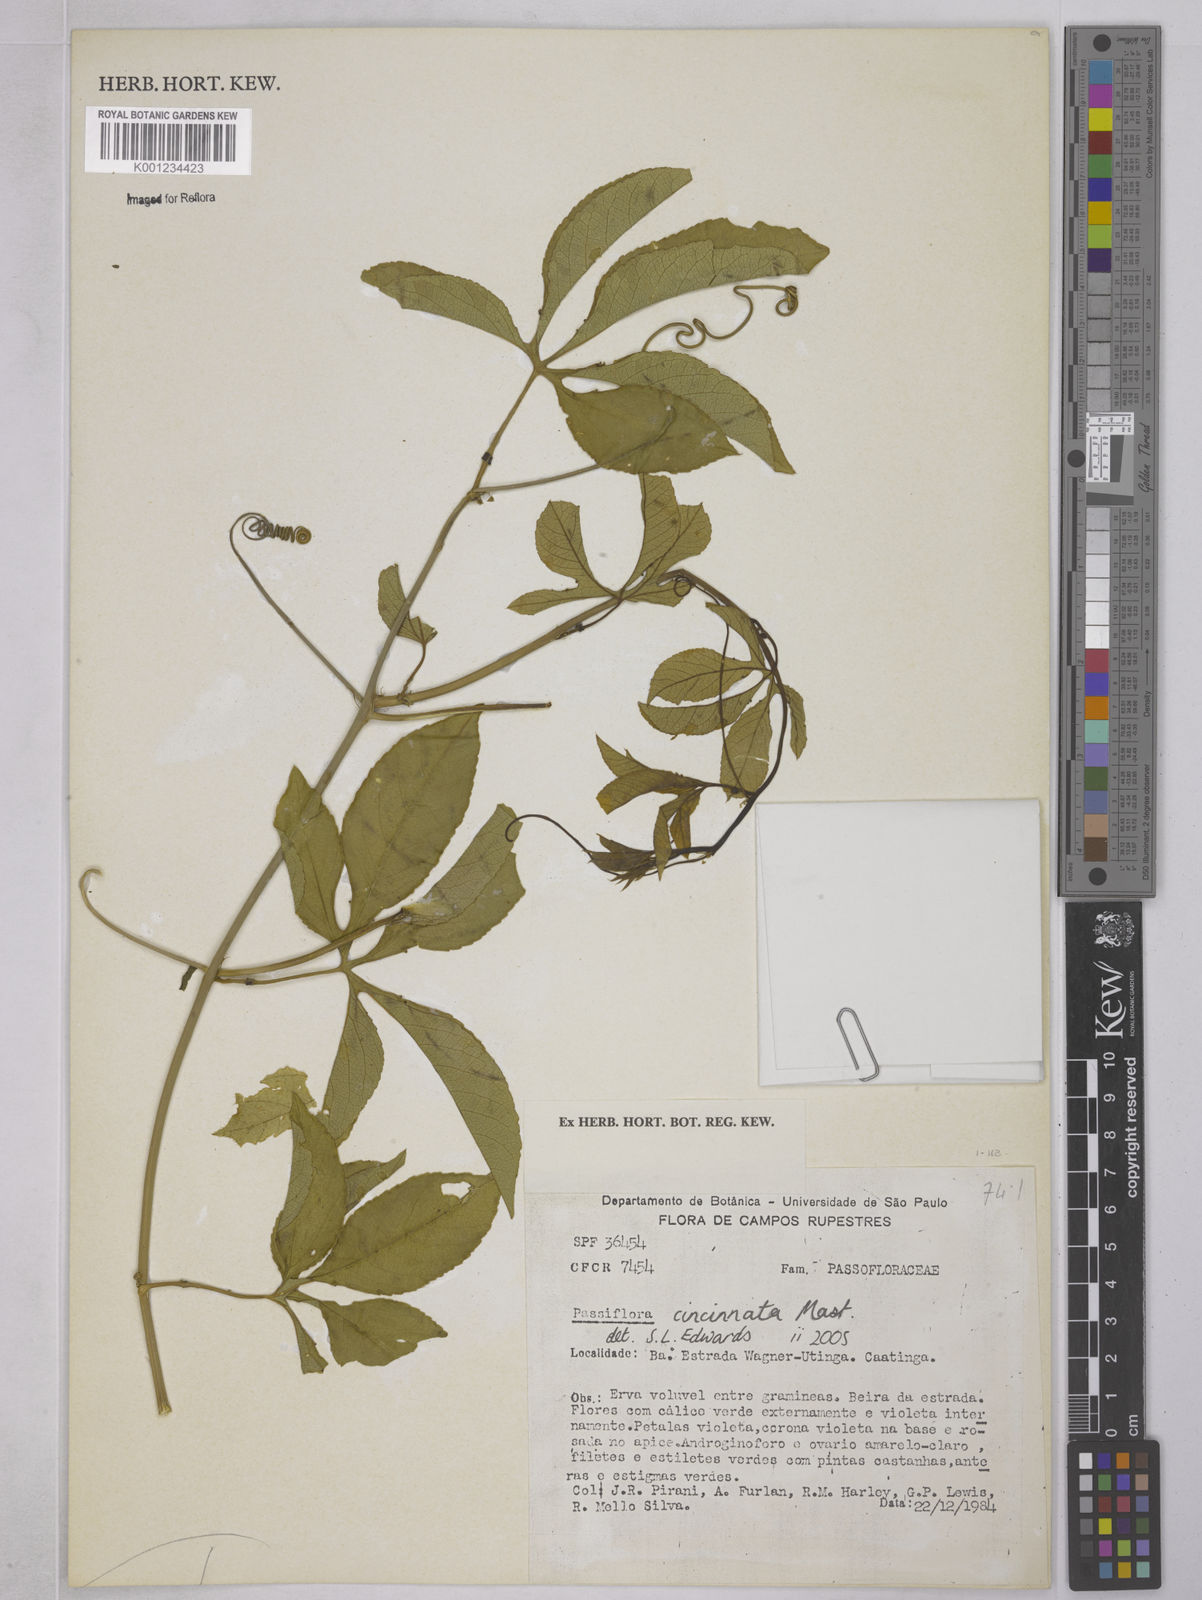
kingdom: Plantae
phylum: Tracheophyta
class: Magnoliopsida
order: Malpighiales
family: Passifloraceae
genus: Passiflora
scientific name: Passiflora cincinnata
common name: Crato passionvine
